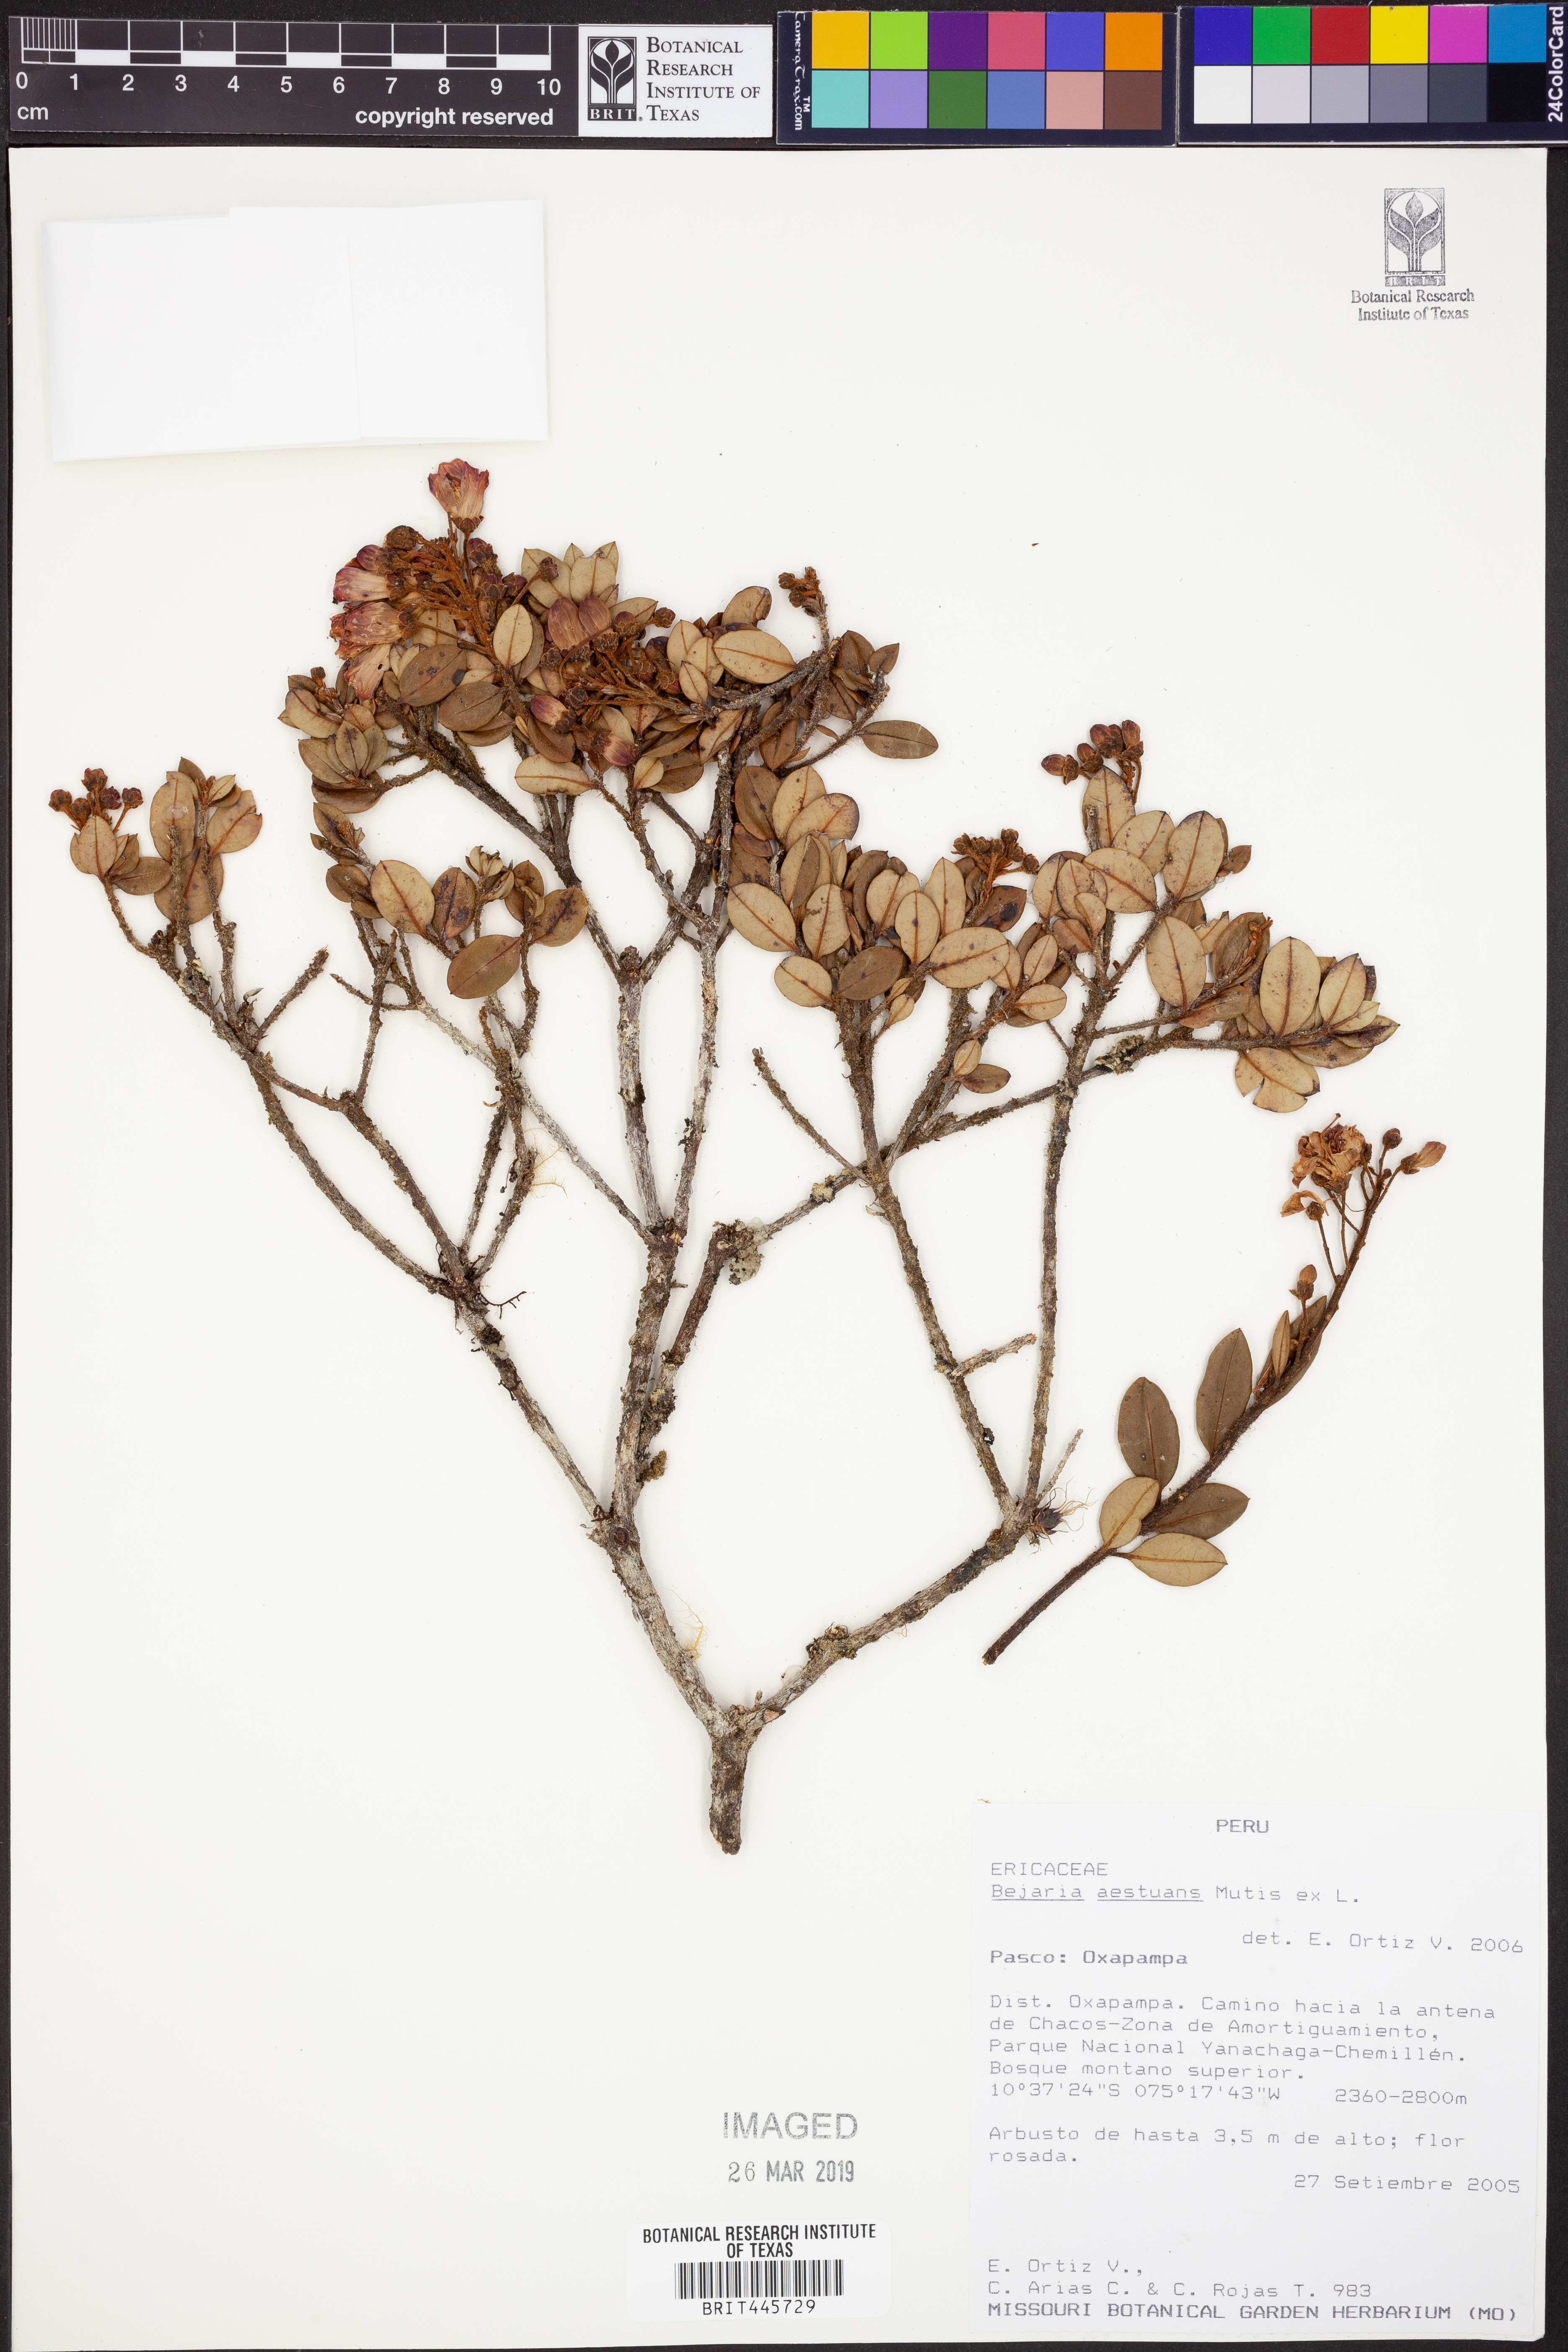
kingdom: Plantae
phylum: Tracheophyta
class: Magnoliopsida
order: Ericales
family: Ericaceae
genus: Bejaria
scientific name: Bejaria aestuans
